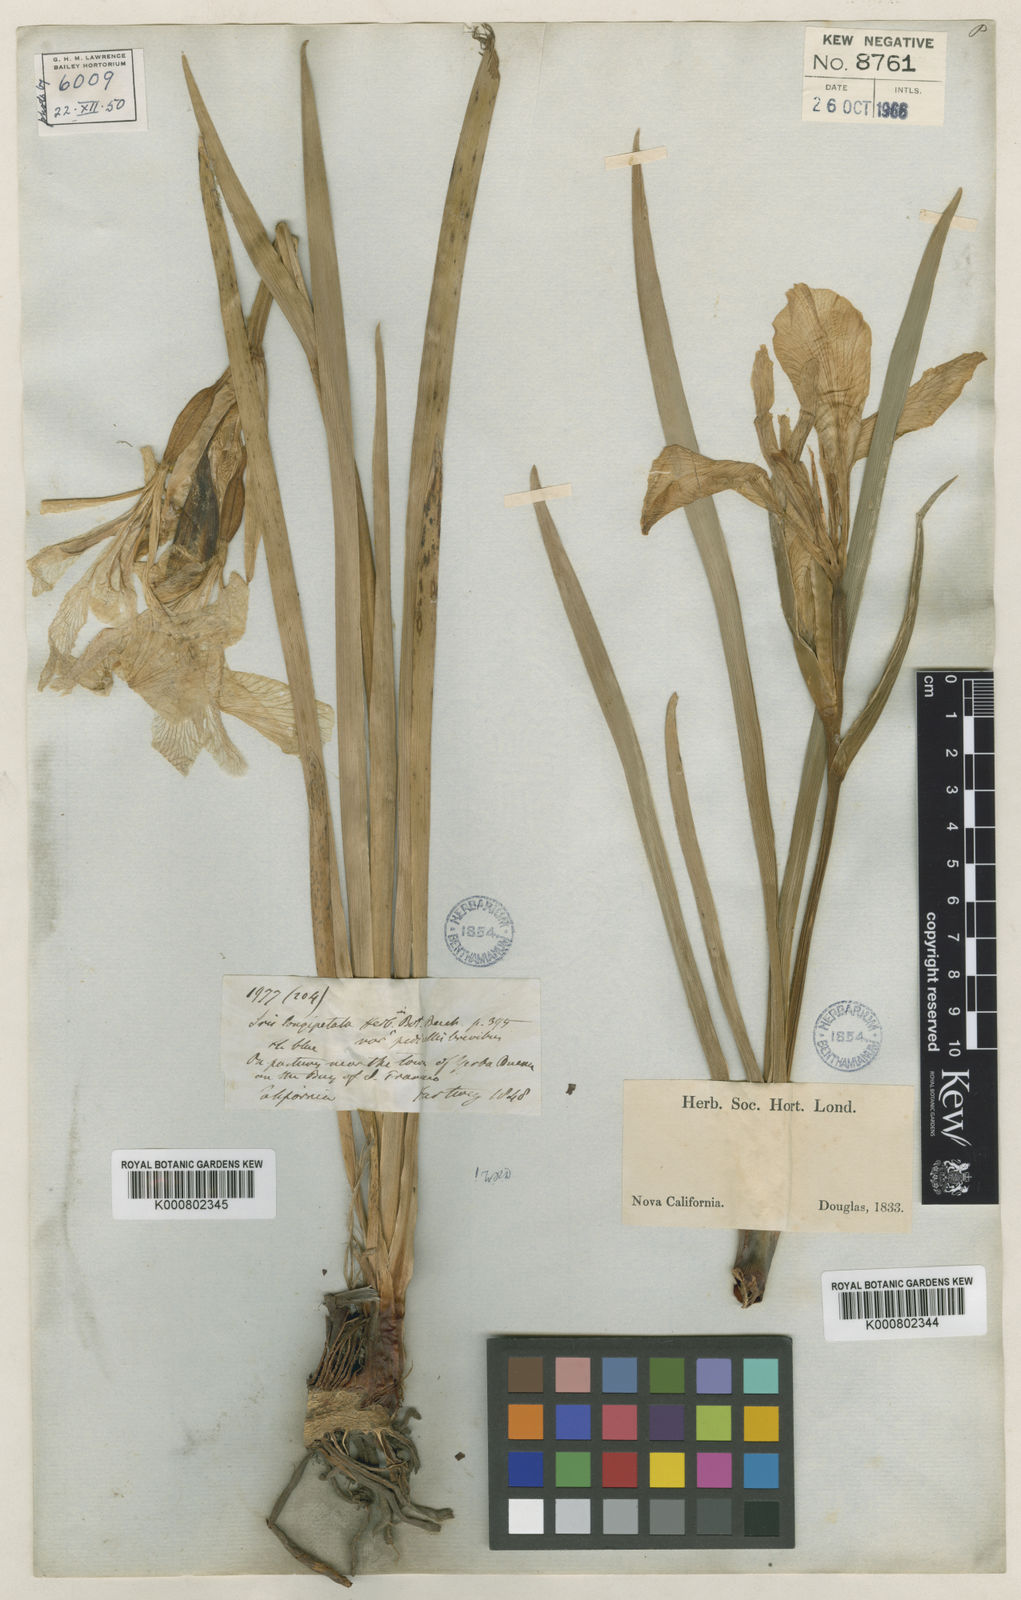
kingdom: Plantae
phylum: Tracheophyta
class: Liliopsida
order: Asparagales
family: Iridaceae
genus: Iris
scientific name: Iris longipetala
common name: Long-petal iris
